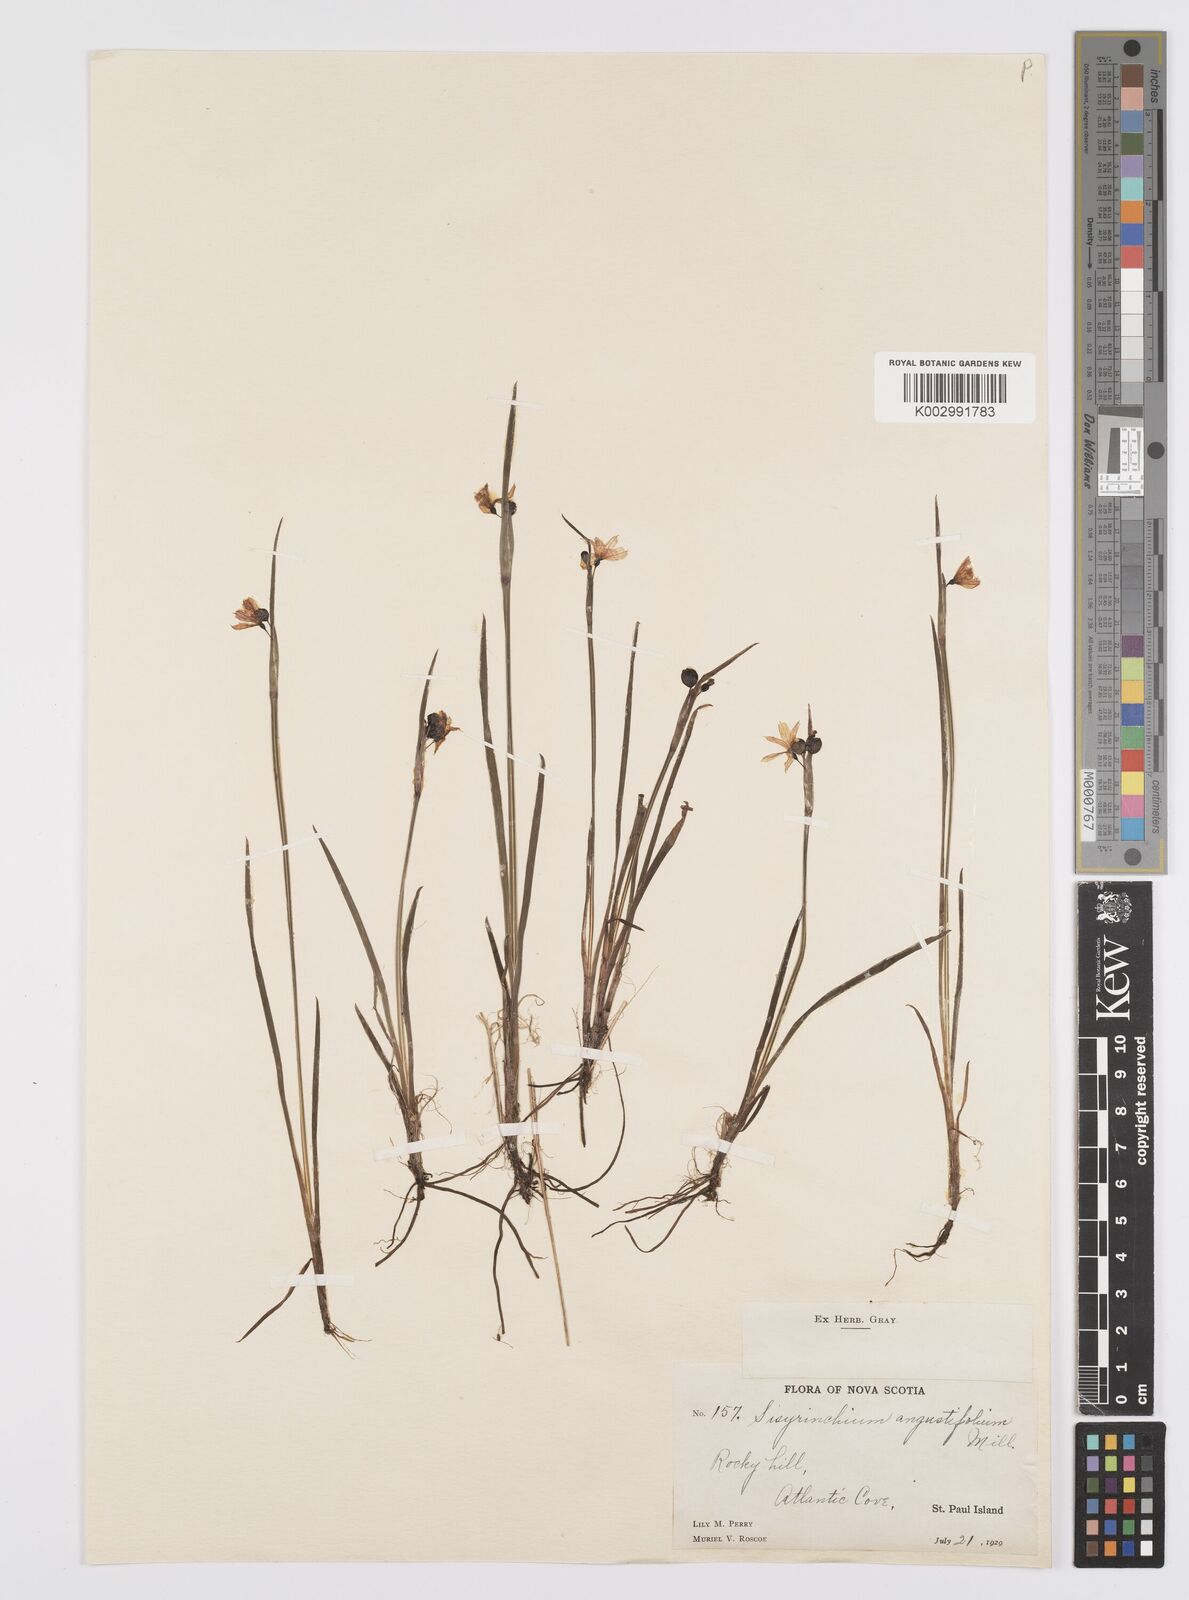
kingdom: Plantae
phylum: Tracheophyta
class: Liliopsida
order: Asparagales
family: Iridaceae
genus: Sisyrinchium
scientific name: Sisyrinchium bermudiana
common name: Blue-eyed-grass
